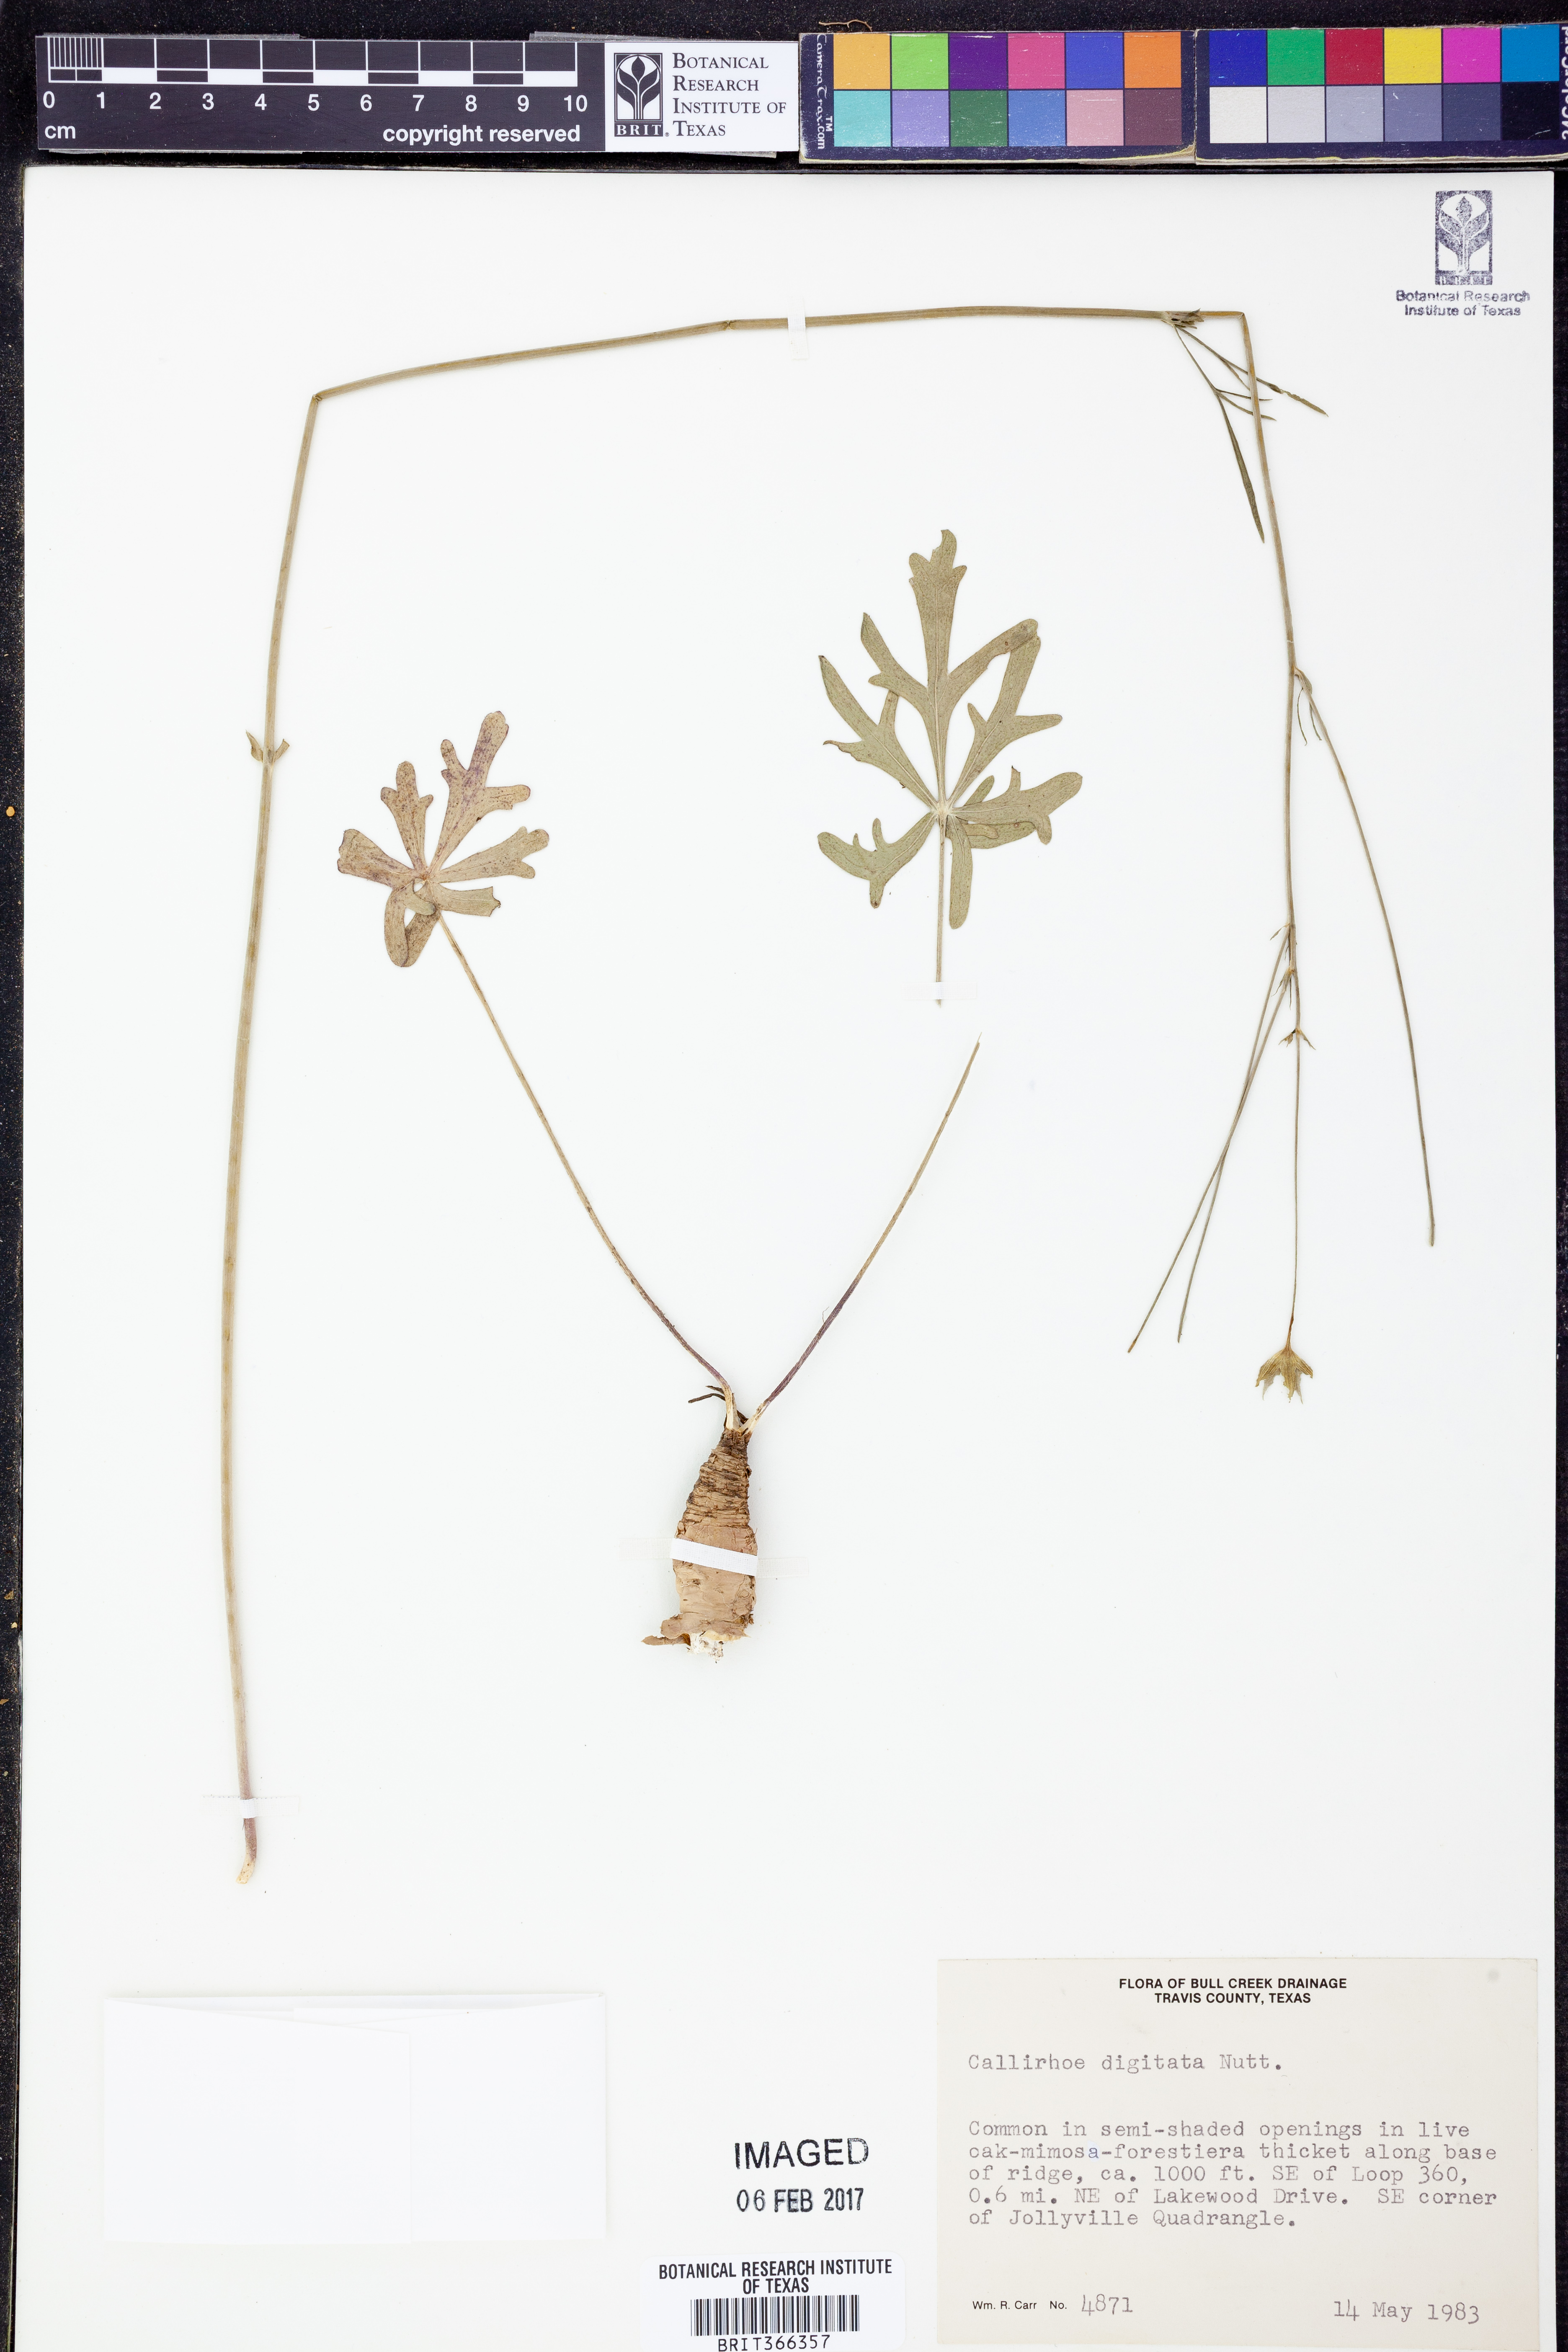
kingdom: Plantae
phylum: Tracheophyta
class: Magnoliopsida
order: Malvales
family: Malvaceae
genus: Callirhoe
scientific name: Callirhoe digitata
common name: Finger poppy-mallow
